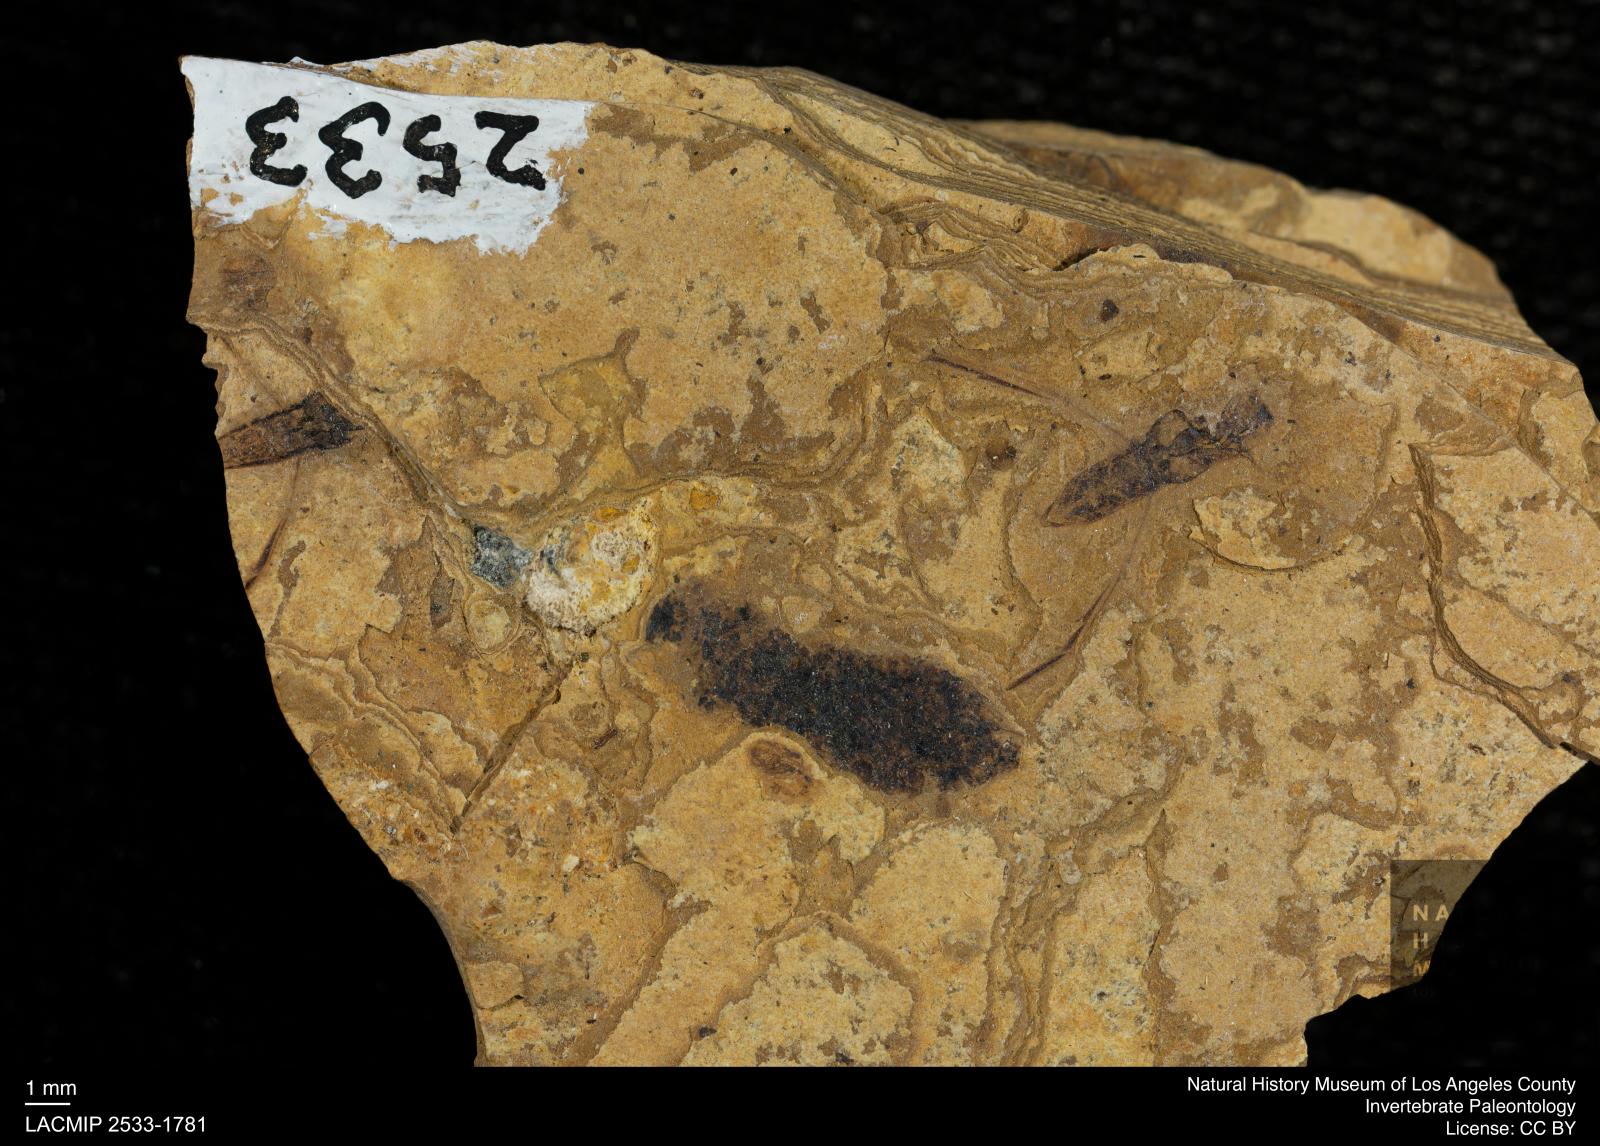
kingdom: Animalia
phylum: Arthropoda
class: Insecta
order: Hemiptera
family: Notonectidae
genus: Notonecta
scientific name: Notonecta
